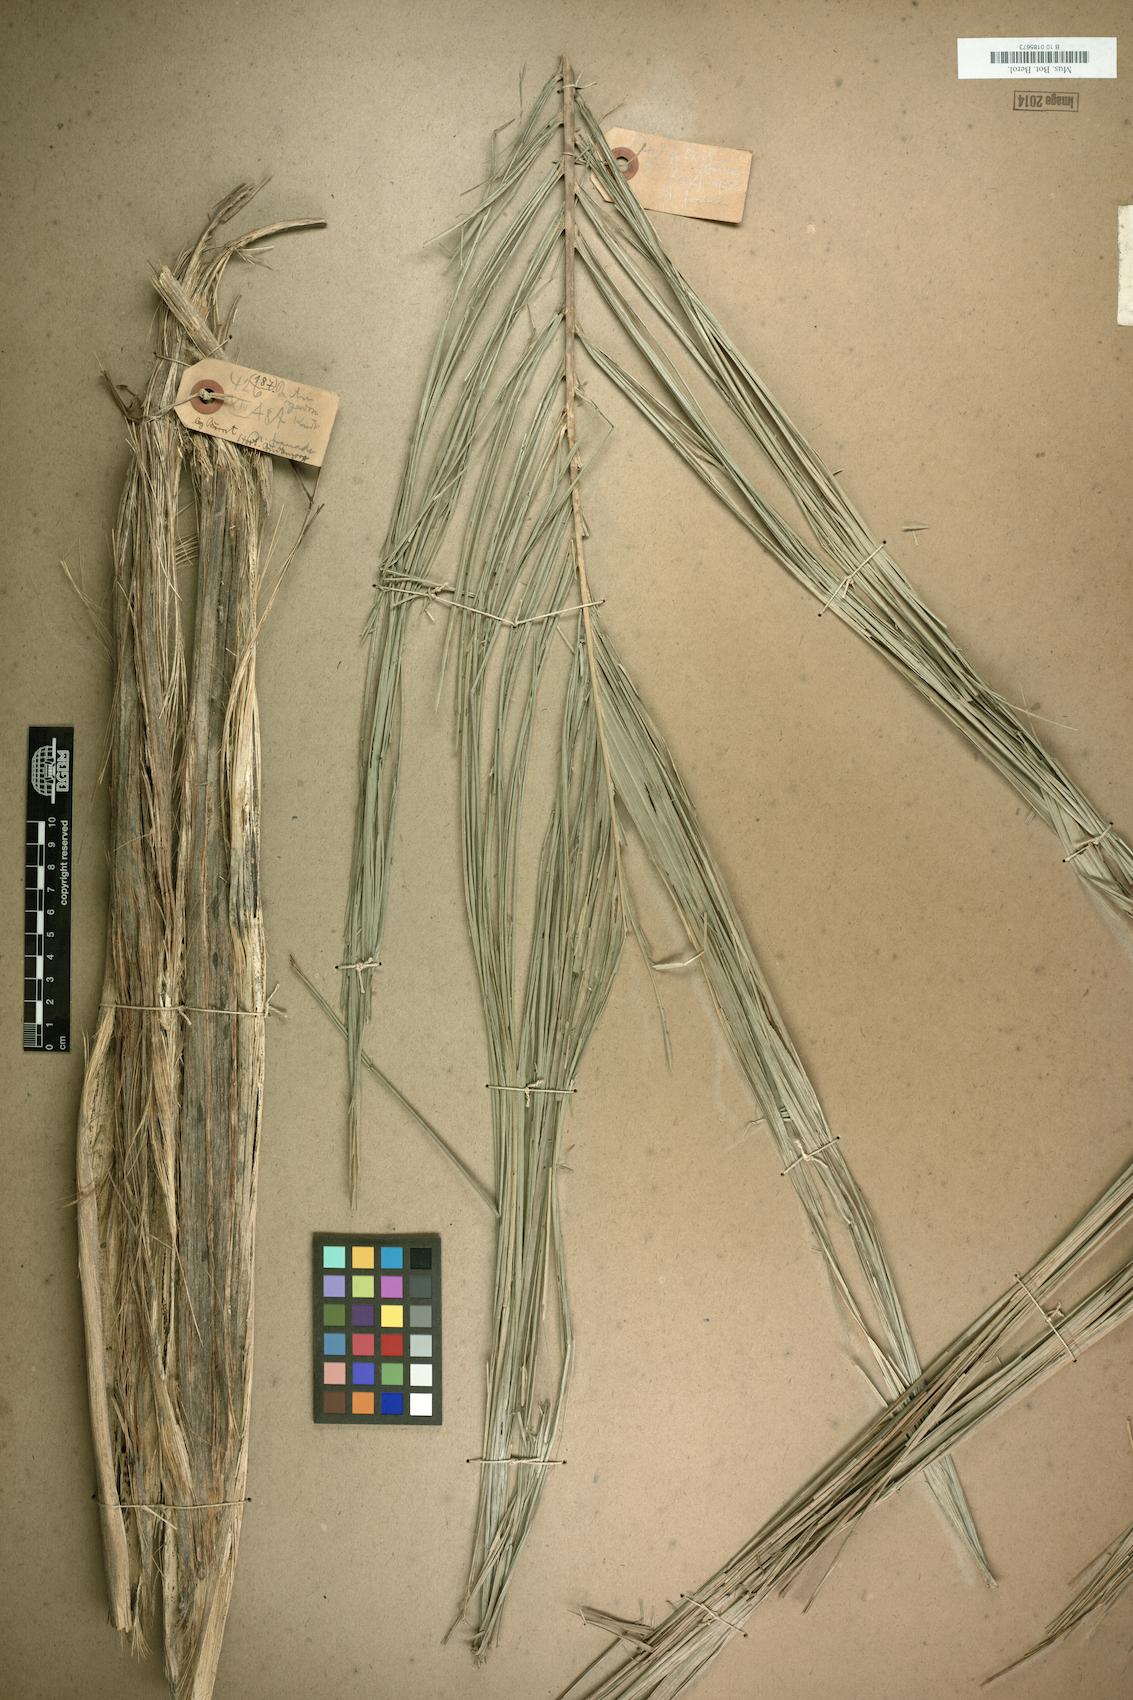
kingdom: Plantae
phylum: Tracheophyta
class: Liliopsida
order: Arecales
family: Arecaceae
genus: Bactris
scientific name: Bactris gasipaes
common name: Peach palm
